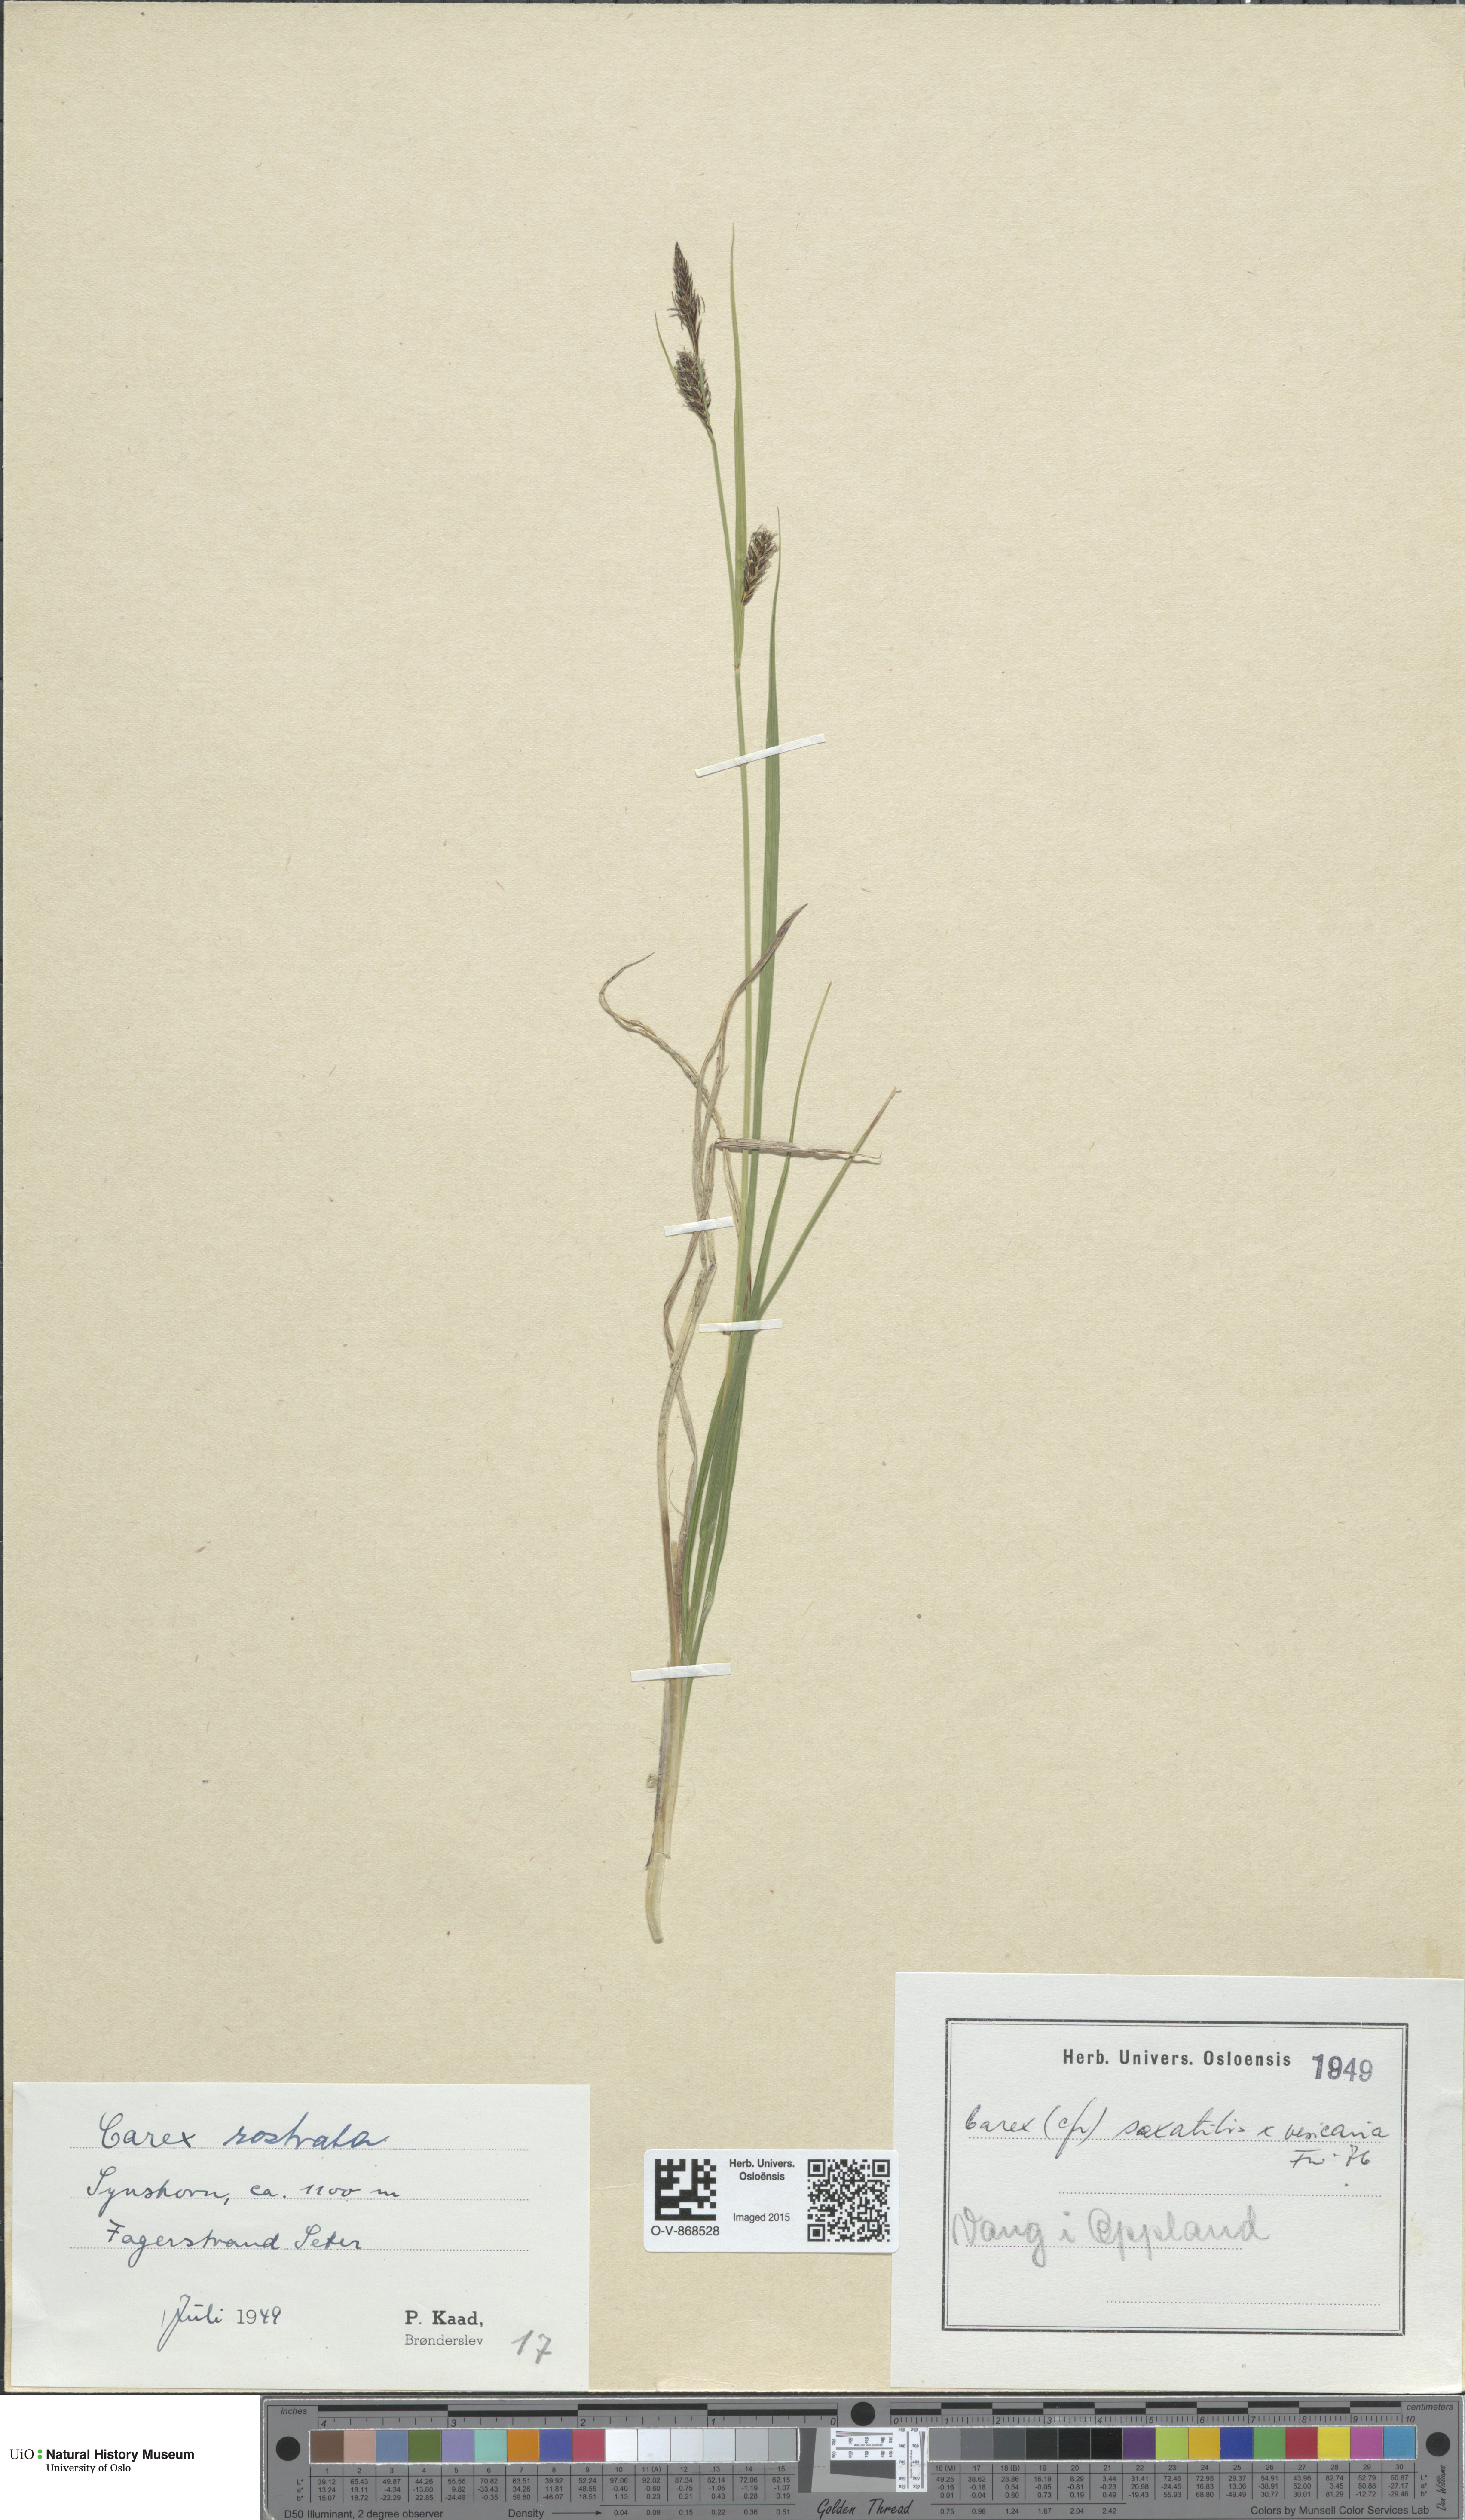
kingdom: Plantae
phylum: Tracheophyta
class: Liliopsida
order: Poales
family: Cyperaceae
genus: Carex
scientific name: Carex
